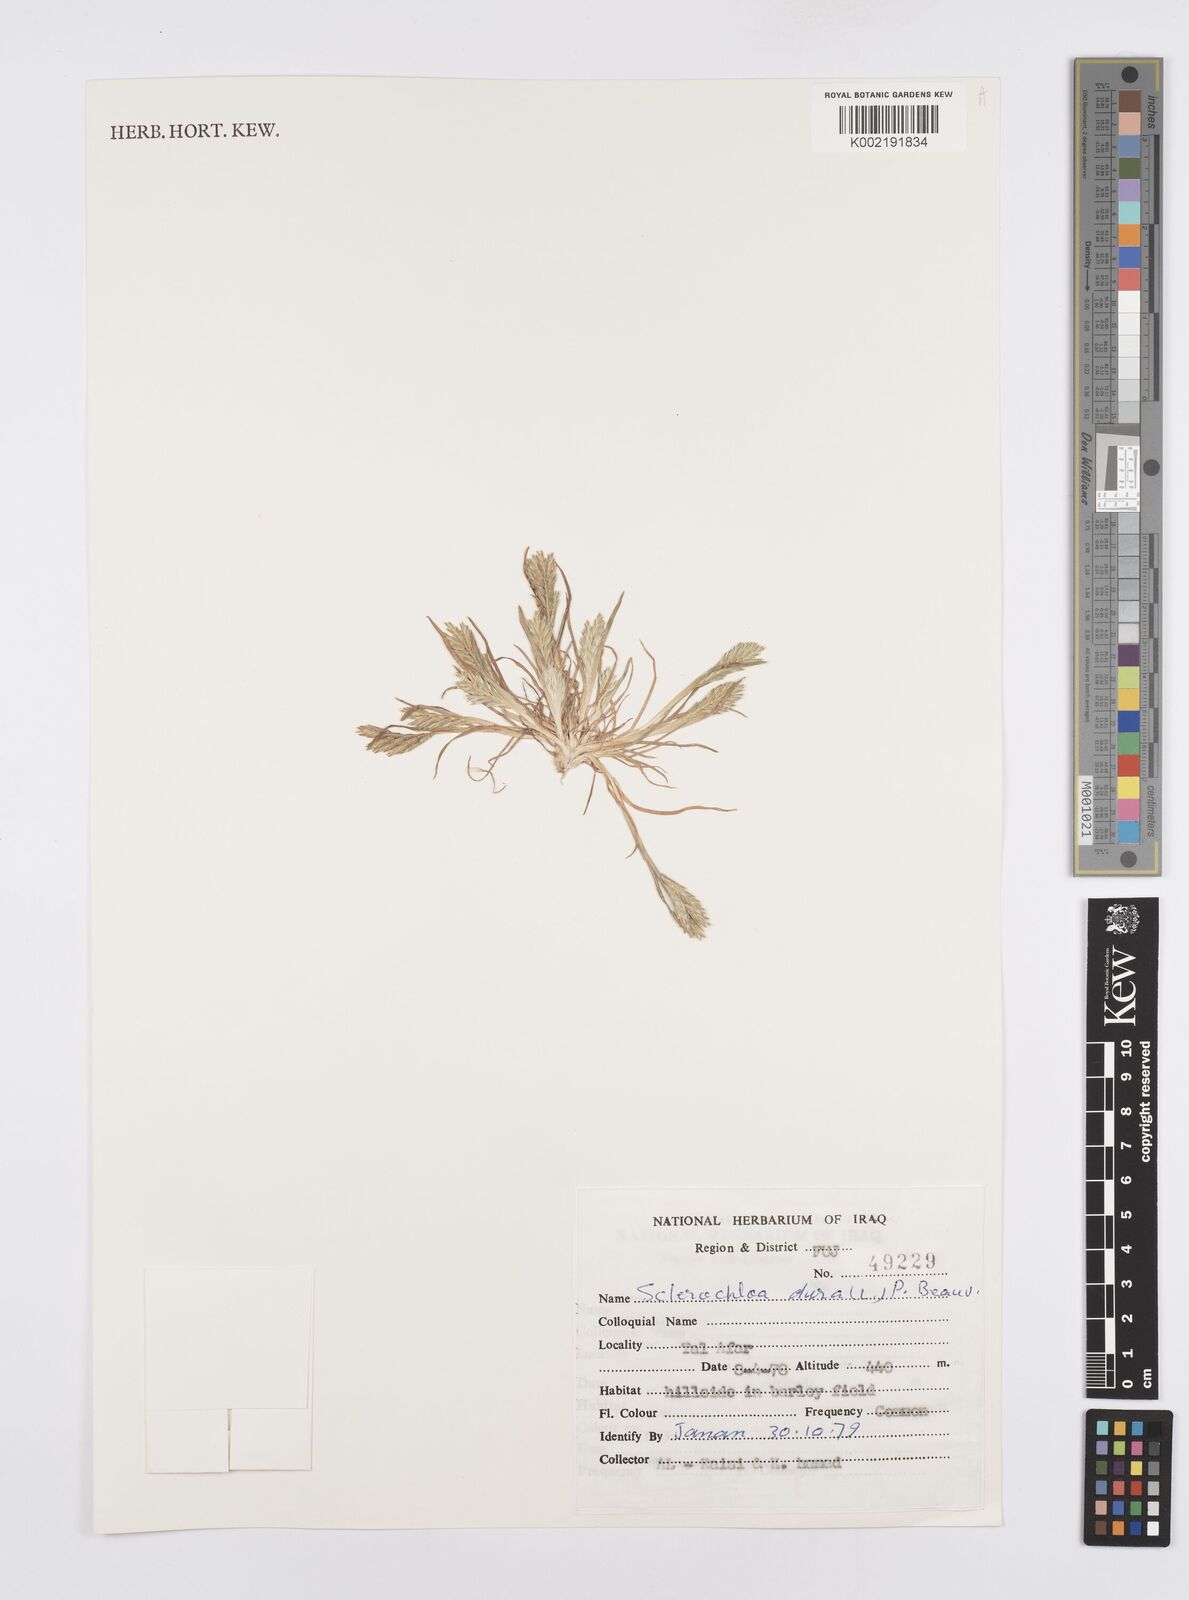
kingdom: Plantae
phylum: Tracheophyta
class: Liliopsida
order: Poales
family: Poaceae
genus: Sclerochloa
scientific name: Sclerochloa dura
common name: Common hardgrass
